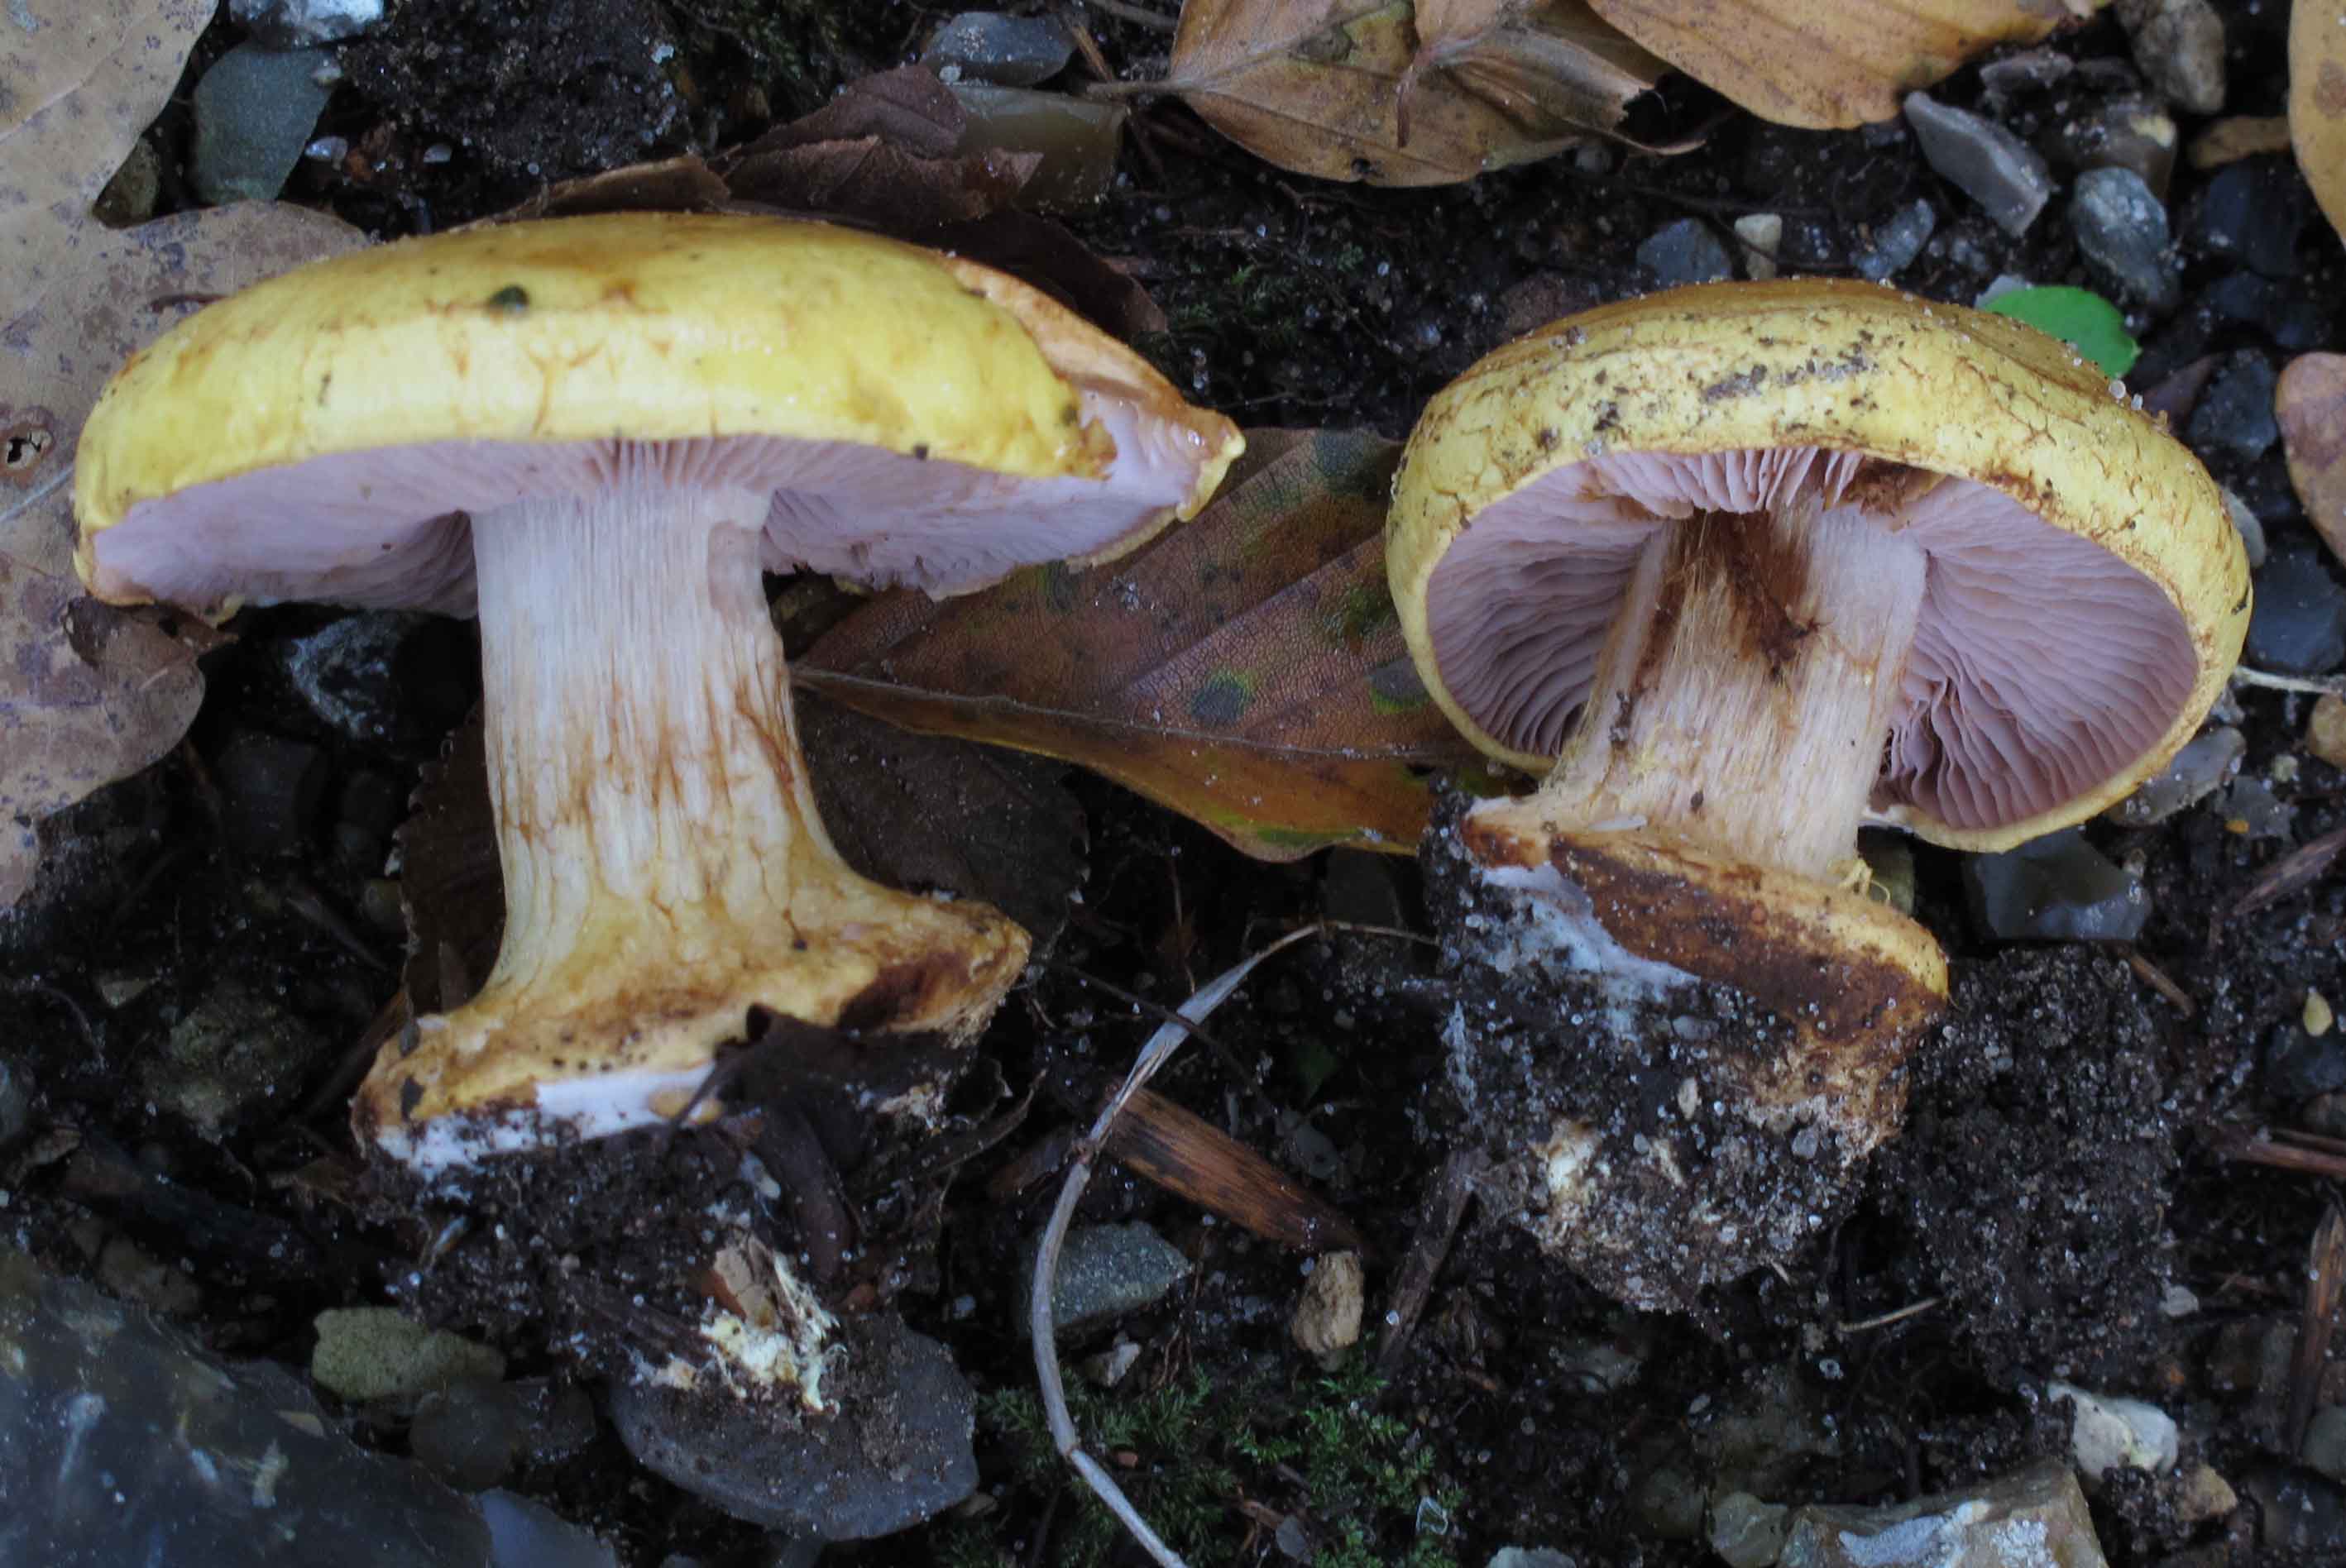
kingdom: Fungi
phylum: Basidiomycota
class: Agaricomycetes
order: Agaricales
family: Cortinariaceae
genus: Calonarius
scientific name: Calonarius callochrous
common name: lillabladet slørhat
